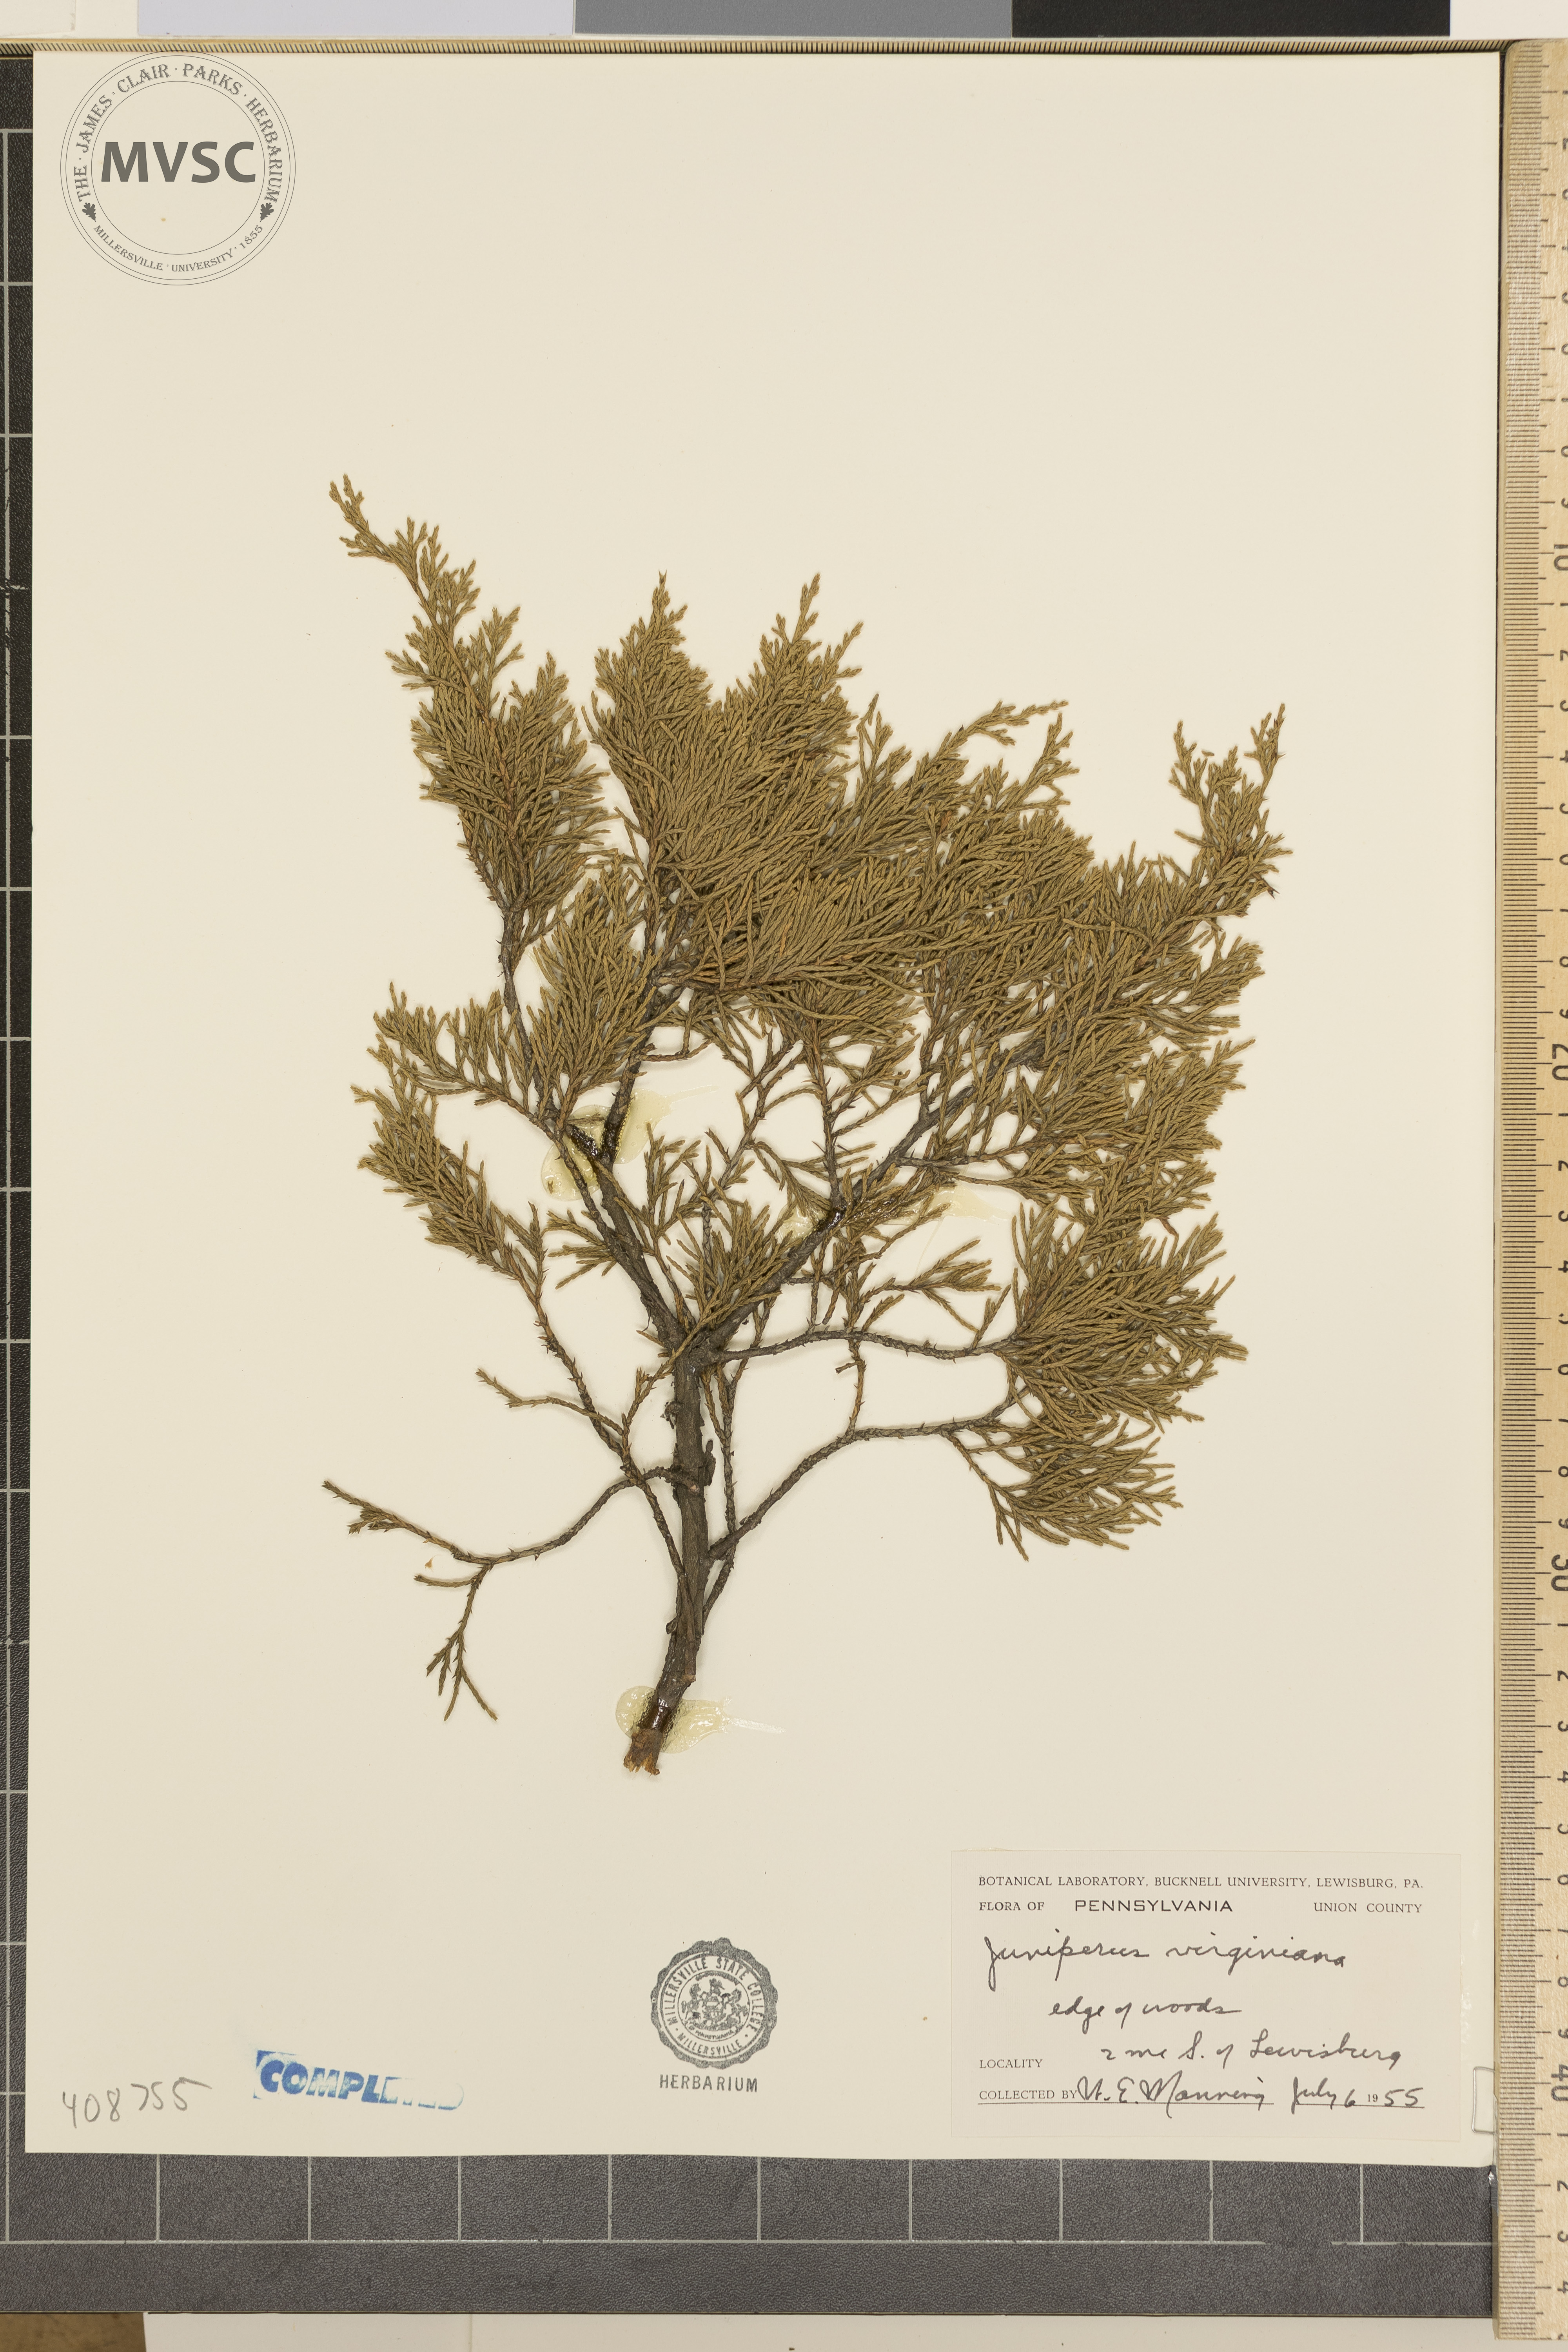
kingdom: Plantae
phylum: Tracheophyta
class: Pinopsida
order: Pinales
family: Cupressaceae
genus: Juniperus
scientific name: Juniperus virginiana
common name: Red juniper
